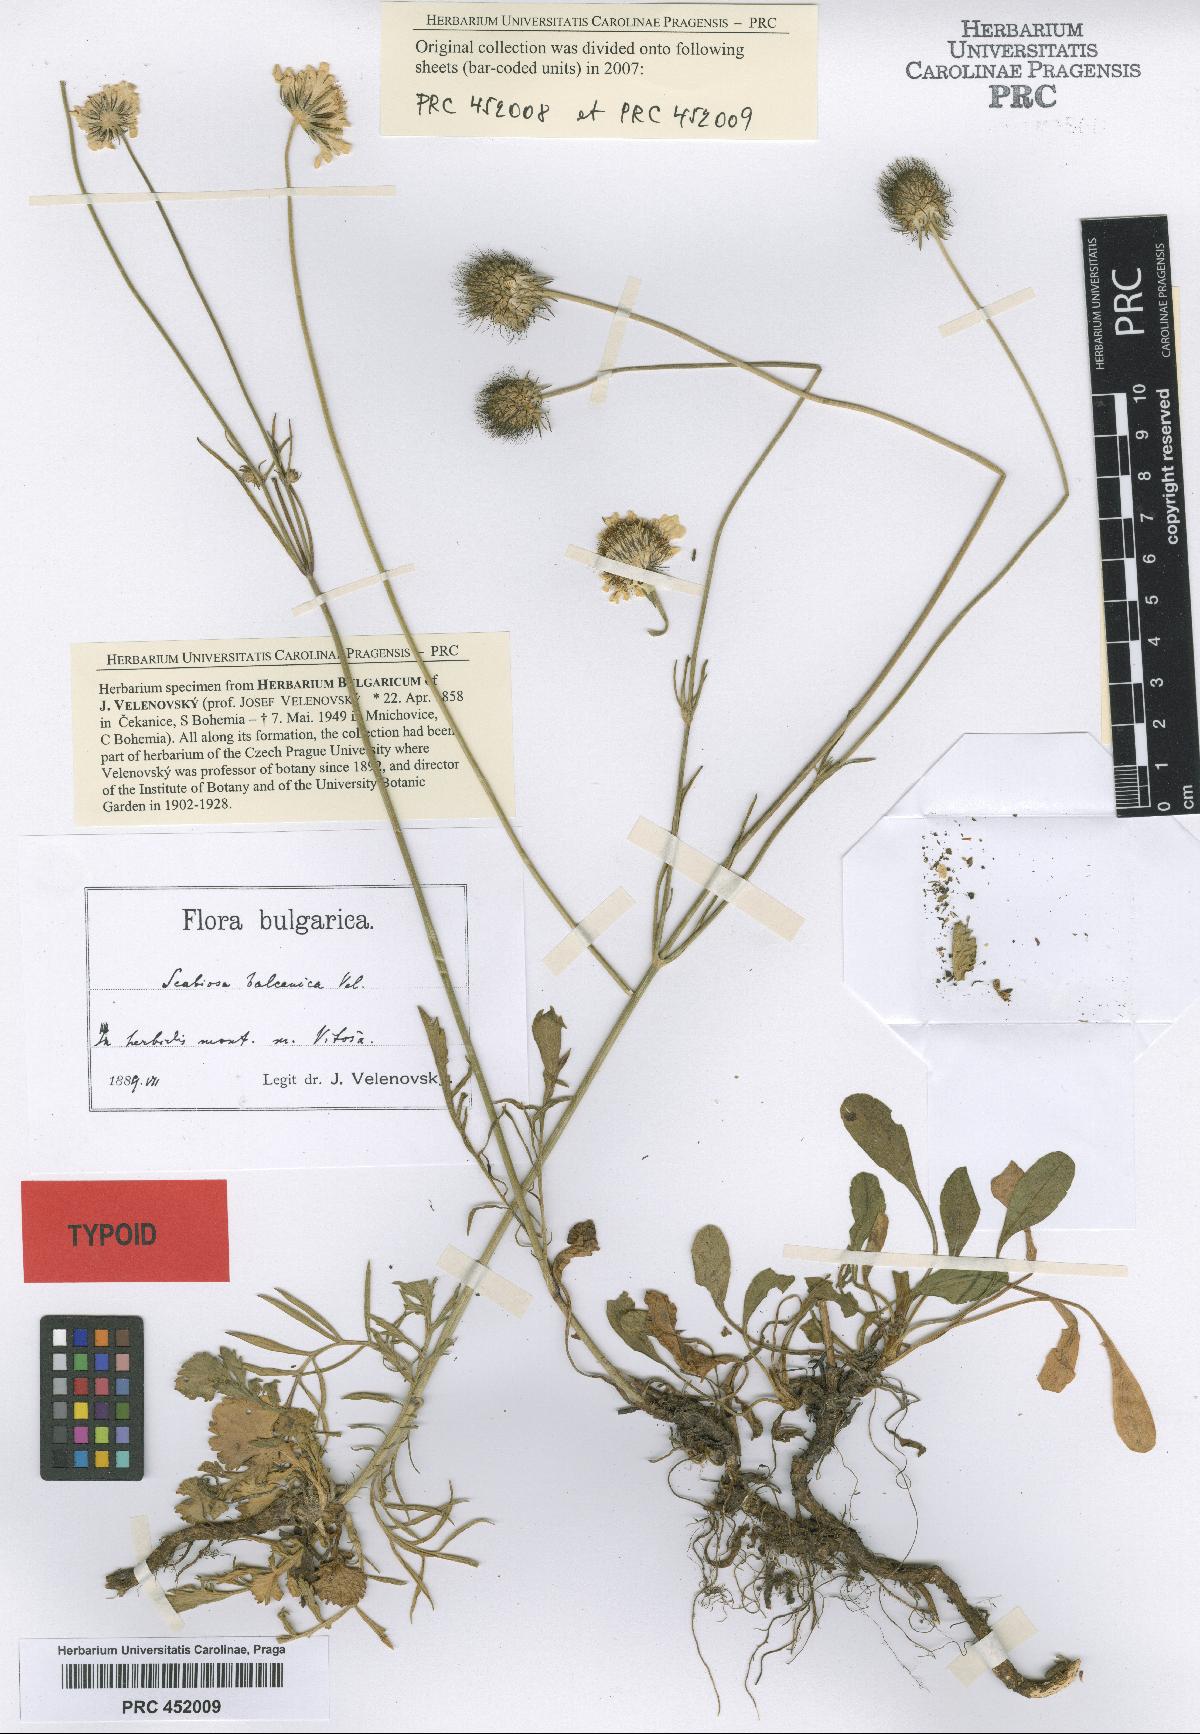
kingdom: Plantae
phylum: Tracheophyta
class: Magnoliopsida
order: Dipsacales
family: Caprifoliaceae
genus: Scabiosa
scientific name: Scabiosa balcanica
